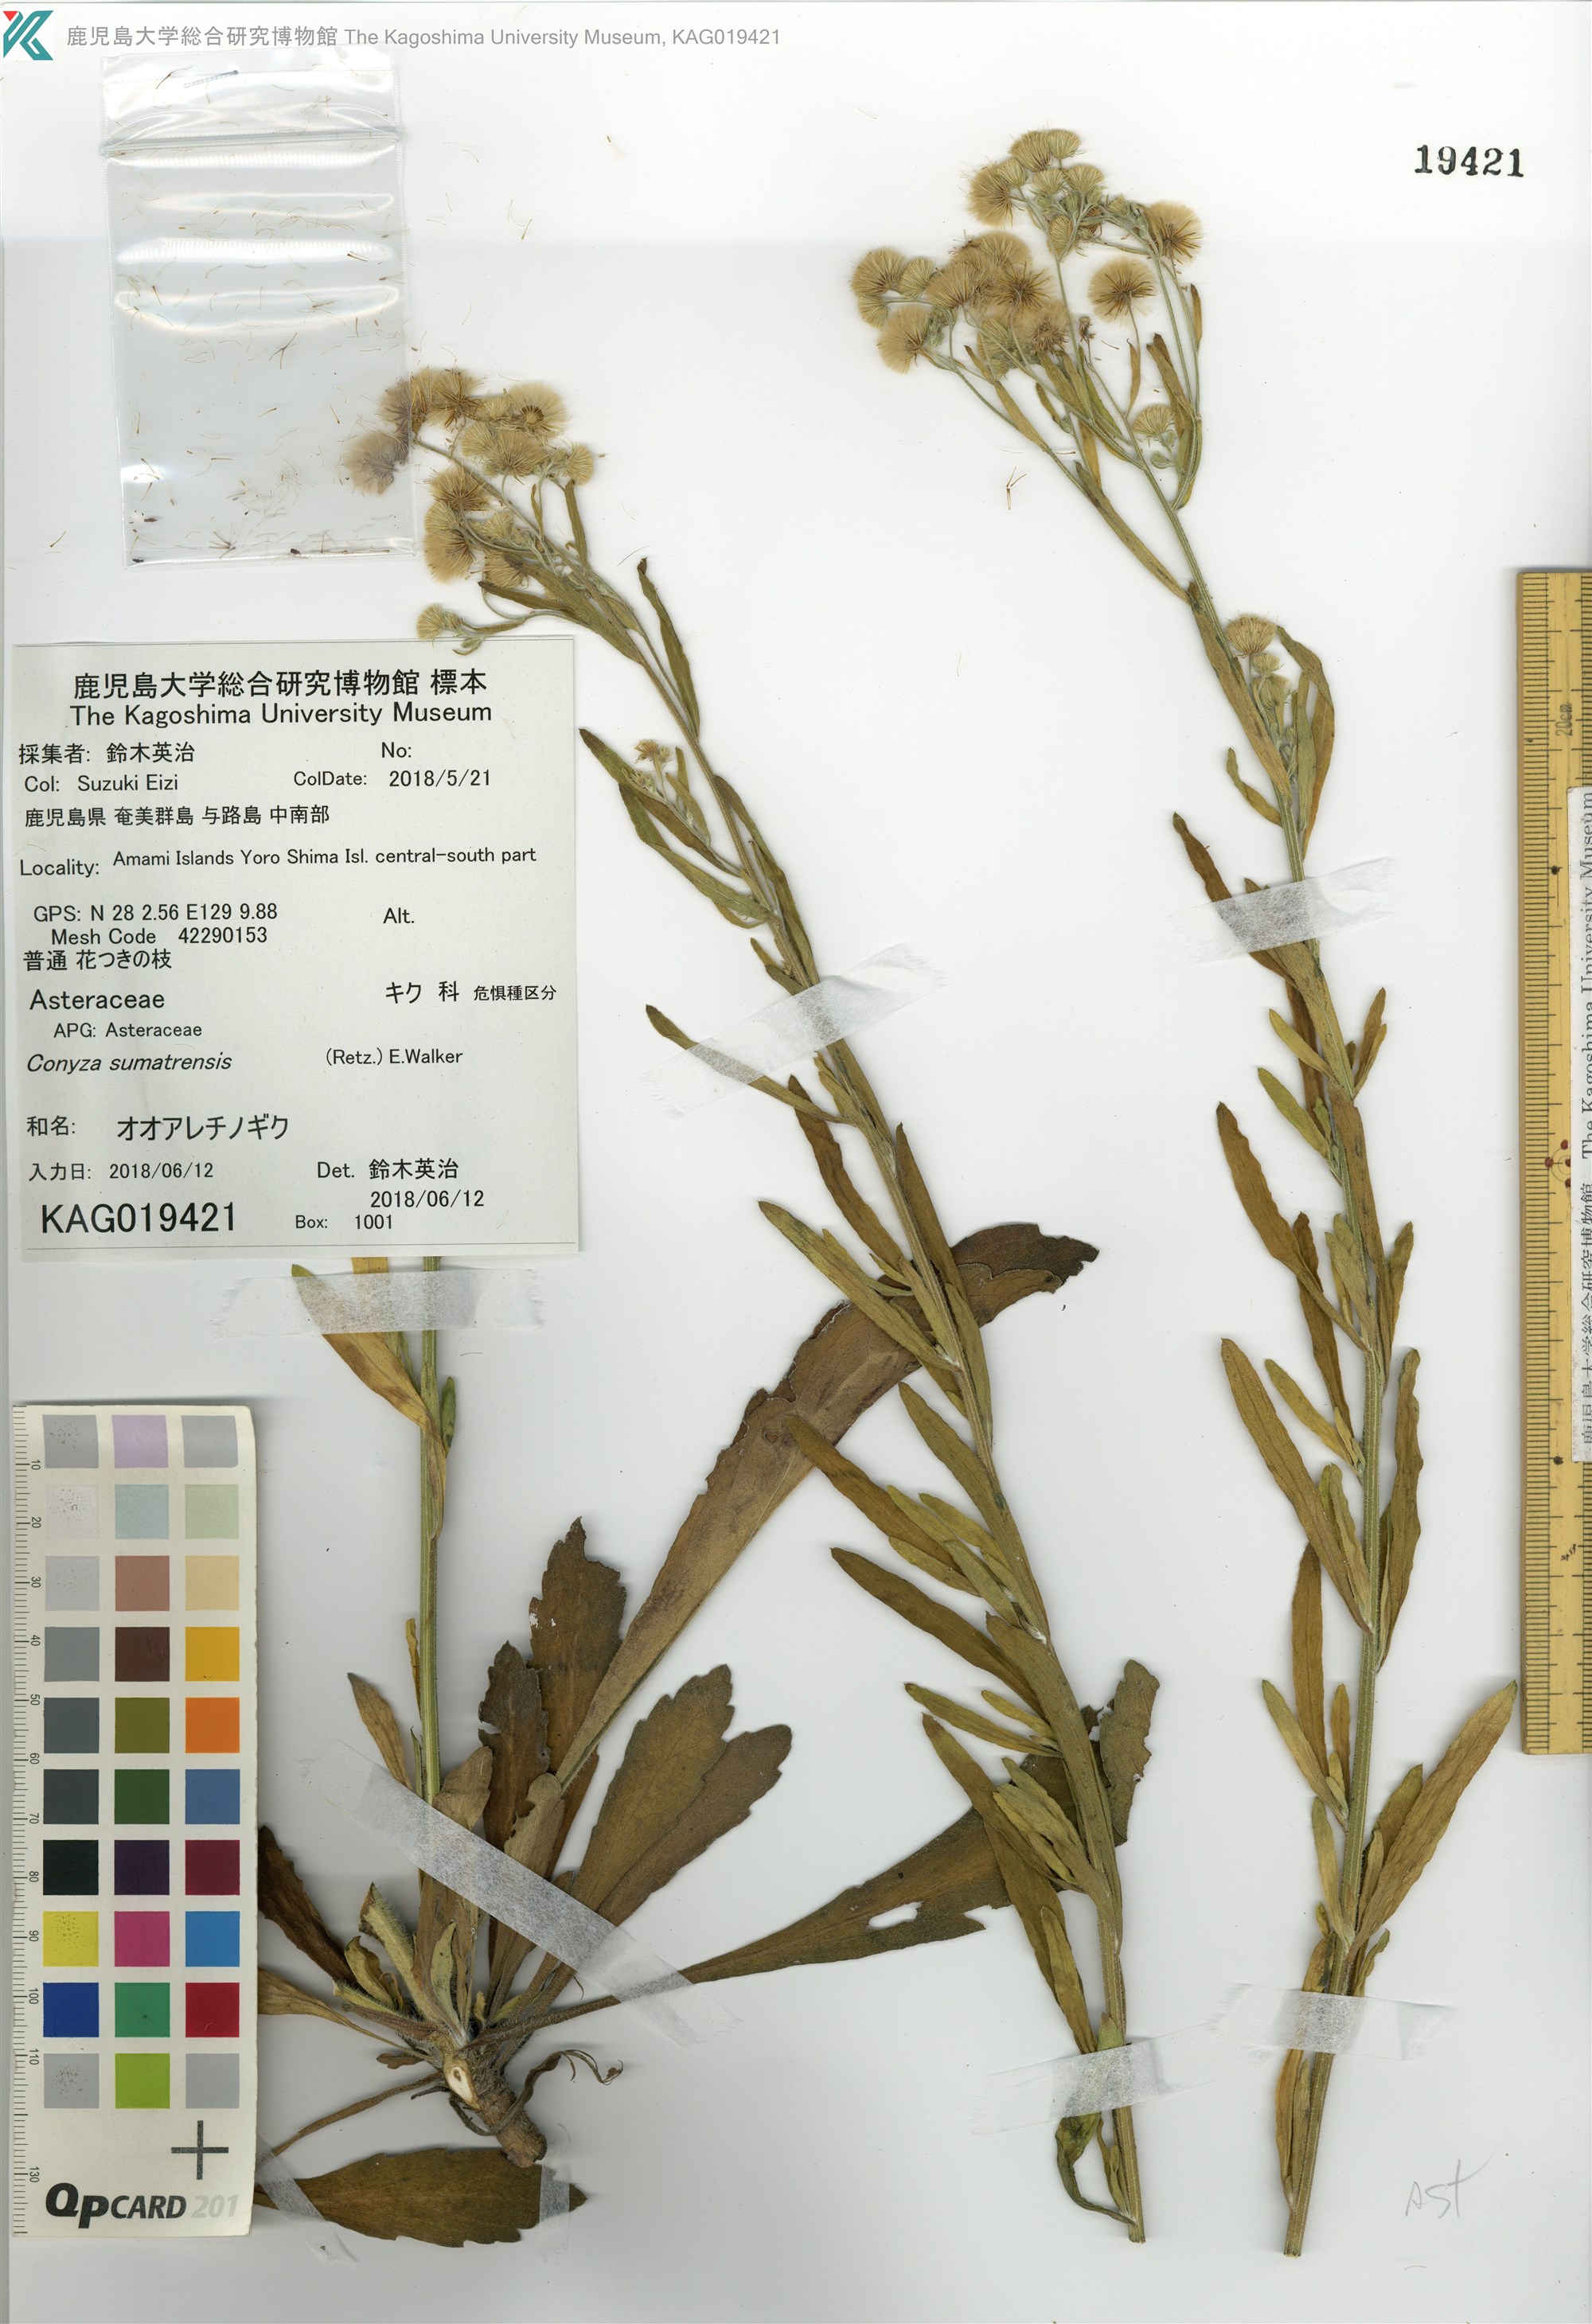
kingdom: Plantae
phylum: Tracheophyta
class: Magnoliopsida
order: Asterales
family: Asteraceae
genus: Erigeron
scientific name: Erigeron sumatrensis
